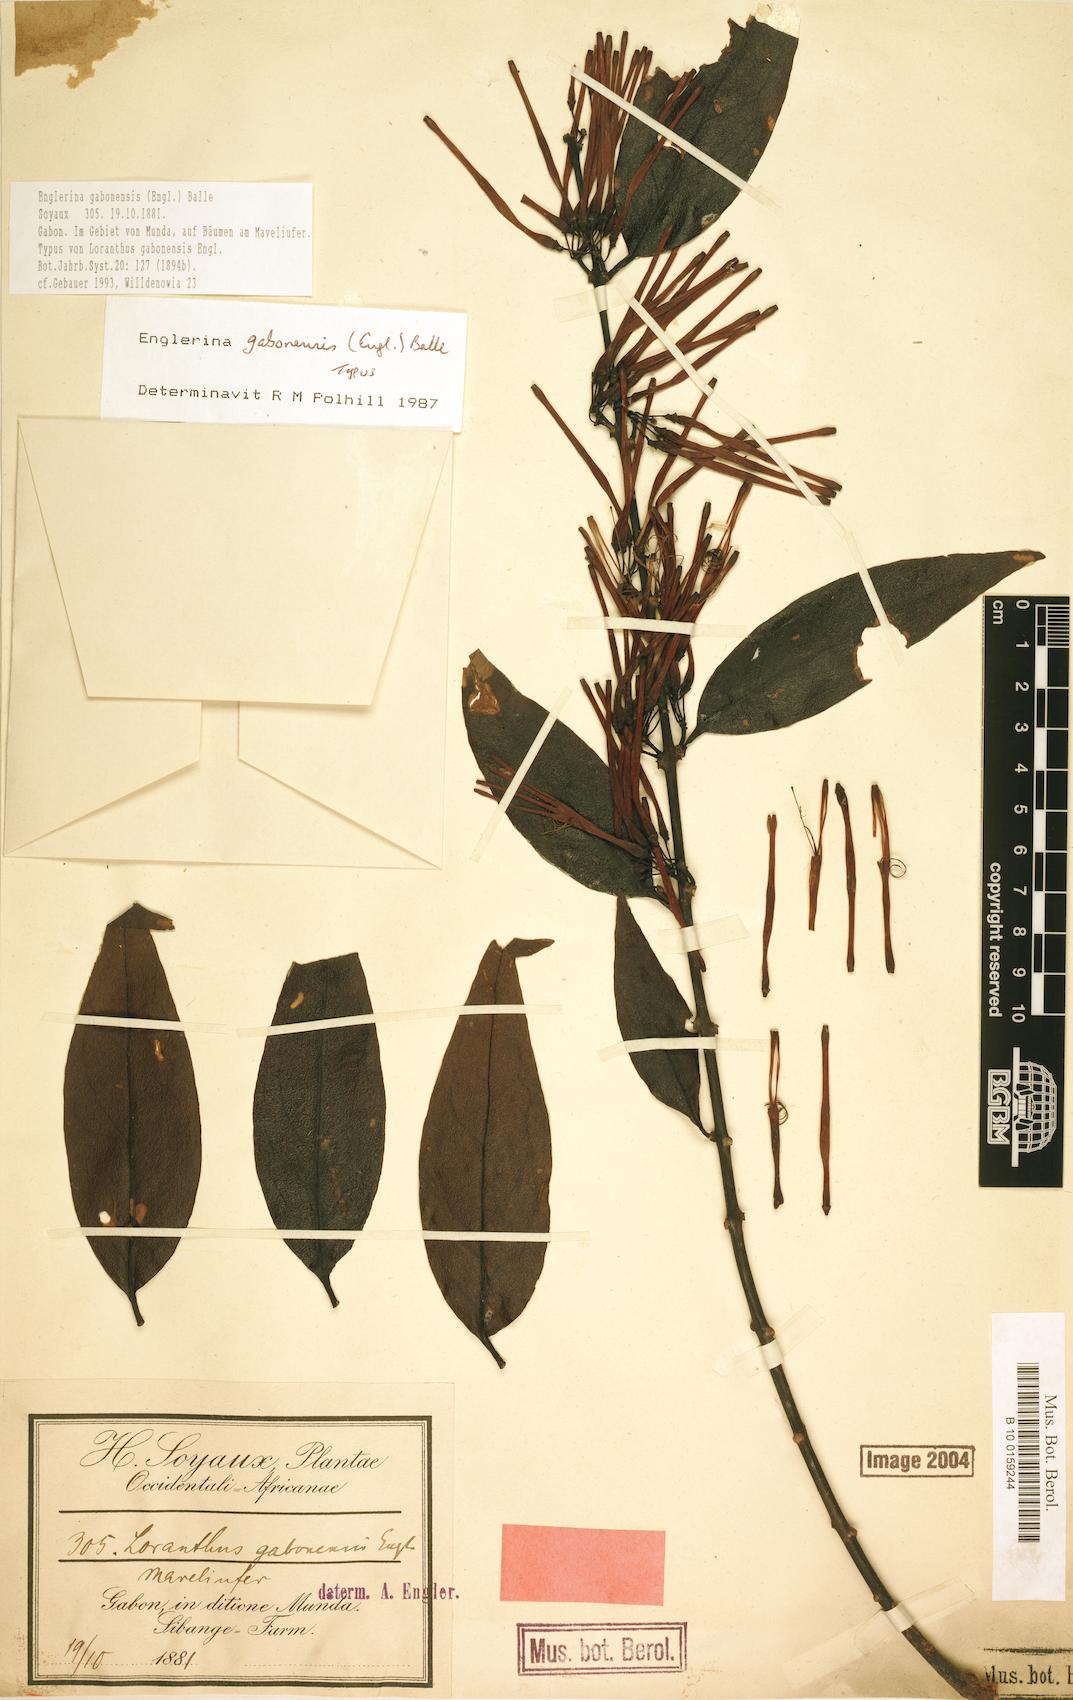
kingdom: Plantae
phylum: Tracheophyta
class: Magnoliopsida
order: Santalales
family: Loranthaceae
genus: Englerina
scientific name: Englerina gabonensis
